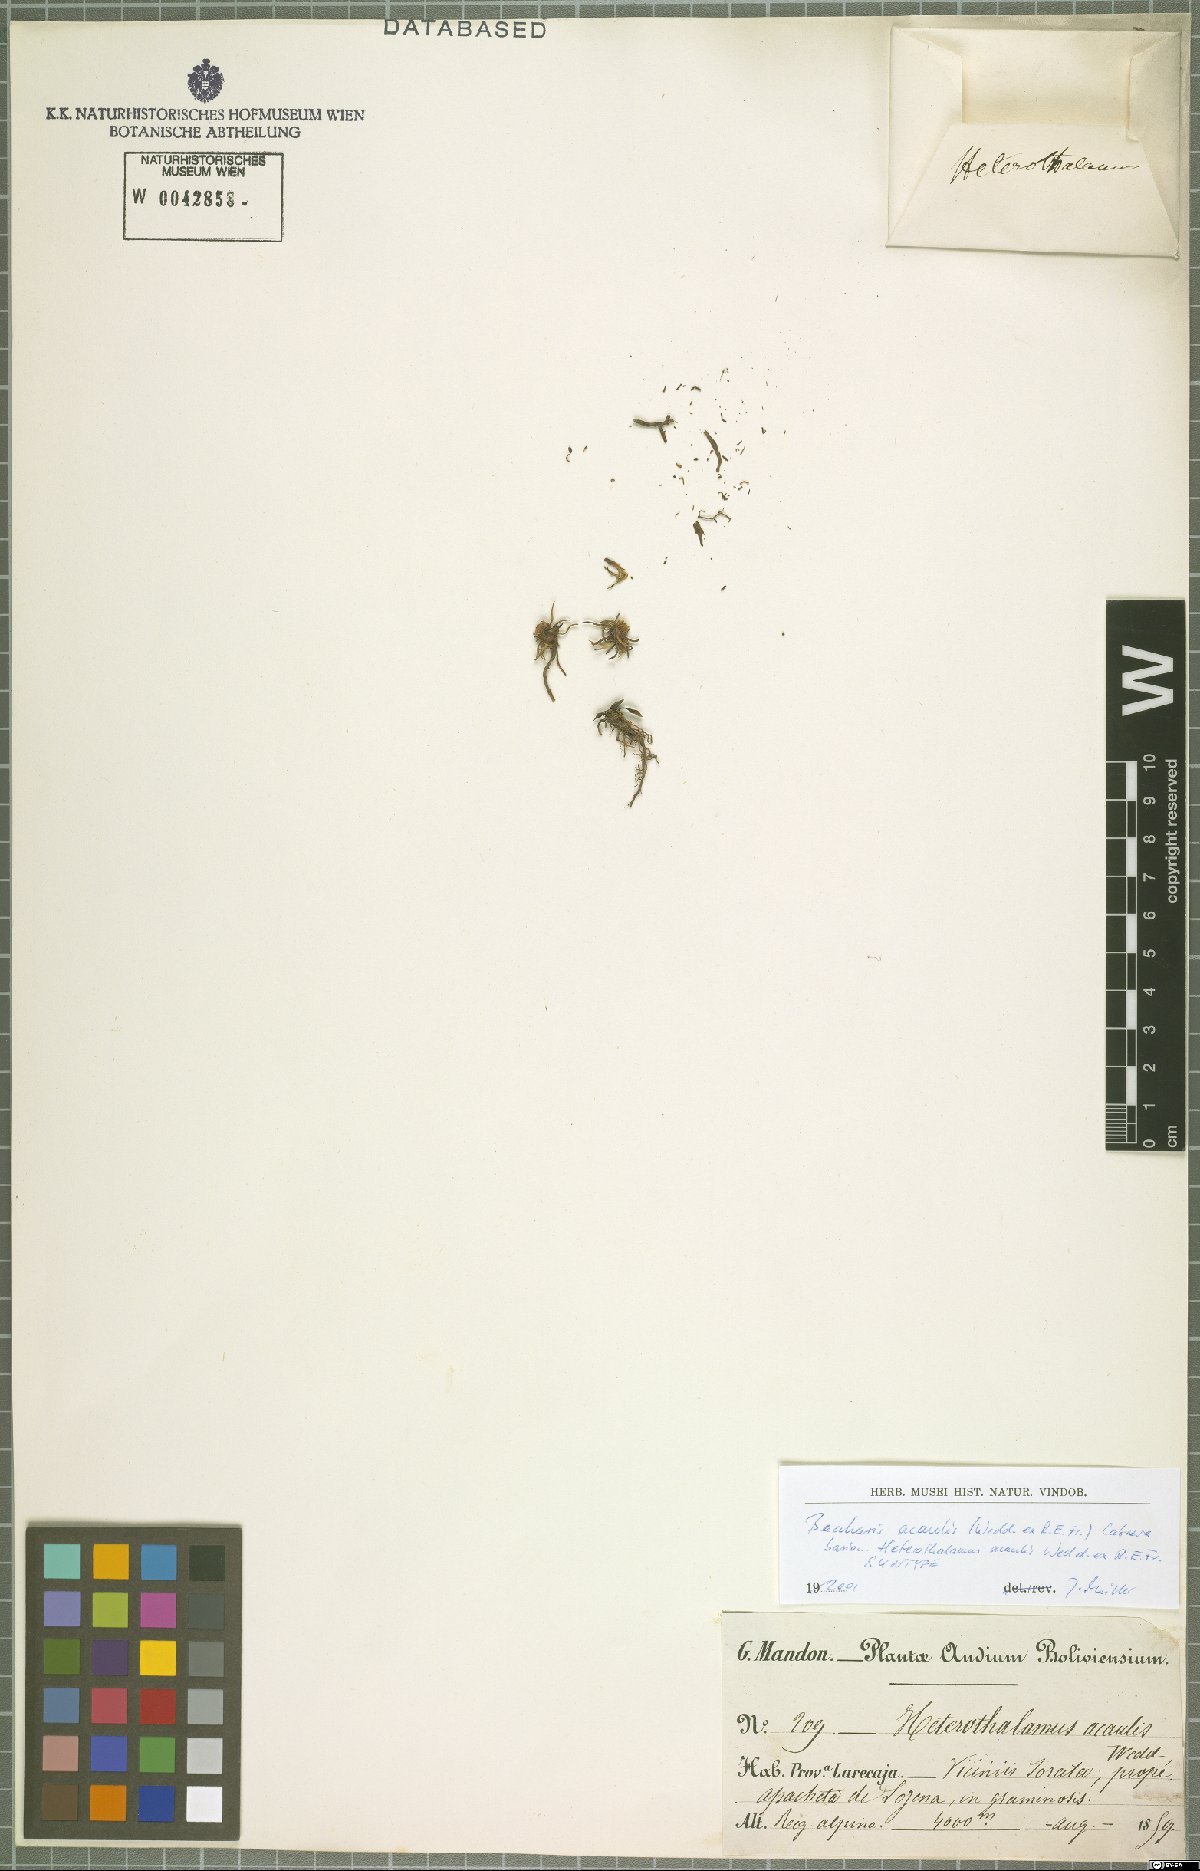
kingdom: Plantae
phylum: Tracheophyta
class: Magnoliopsida
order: Asterales
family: Asteraceae
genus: Pseudobaccharis
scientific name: Pseudobaccharis acaulis
